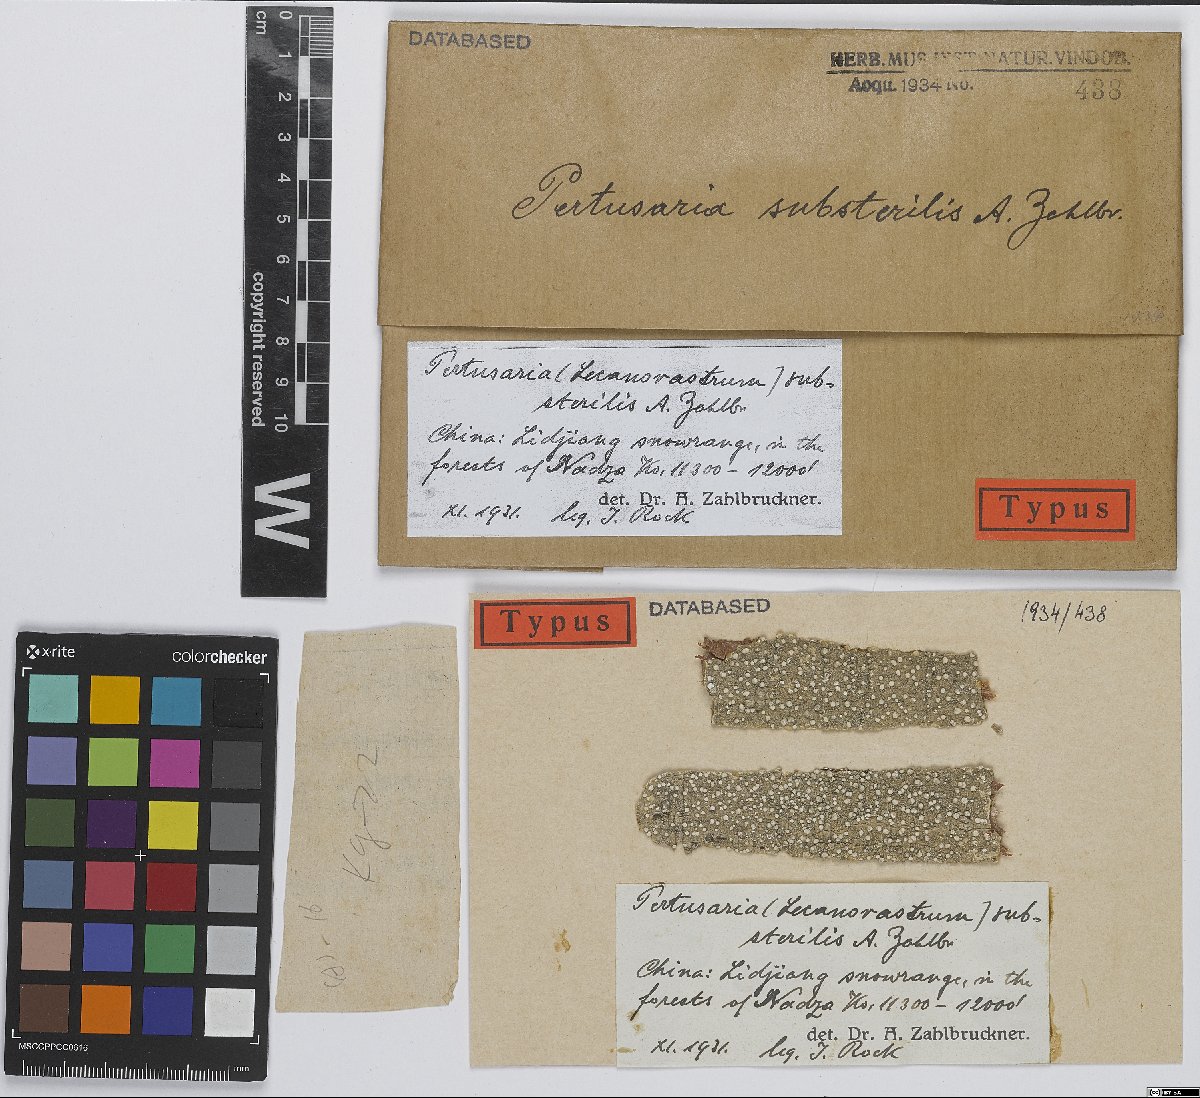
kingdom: Fungi
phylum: Ascomycota
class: Lecanoromycetes
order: Pertusariales
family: Pertusariaceae
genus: Pertusaria
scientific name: Pertusaria
